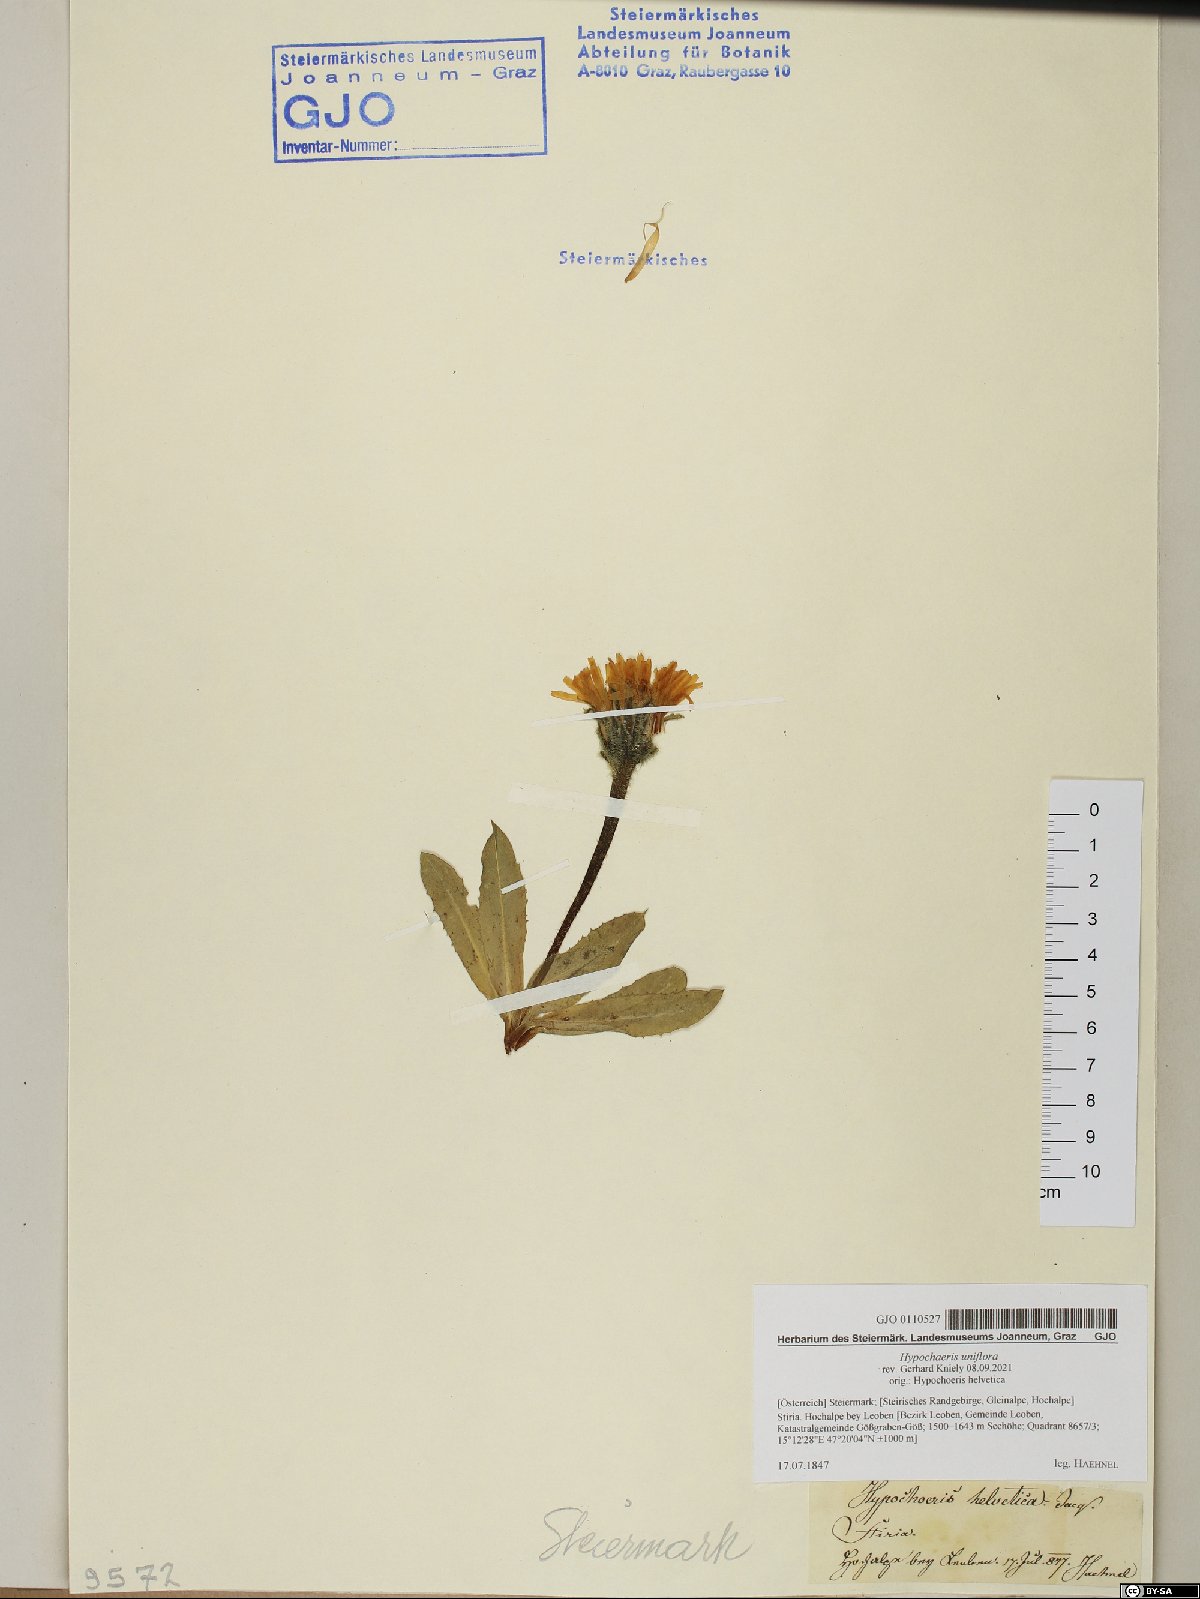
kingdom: Plantae
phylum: Tracheophyta
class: Magnoliopsida
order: Asterales
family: Asteraceae
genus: Trommsdorffia
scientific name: Trommsdorffia uniflora
